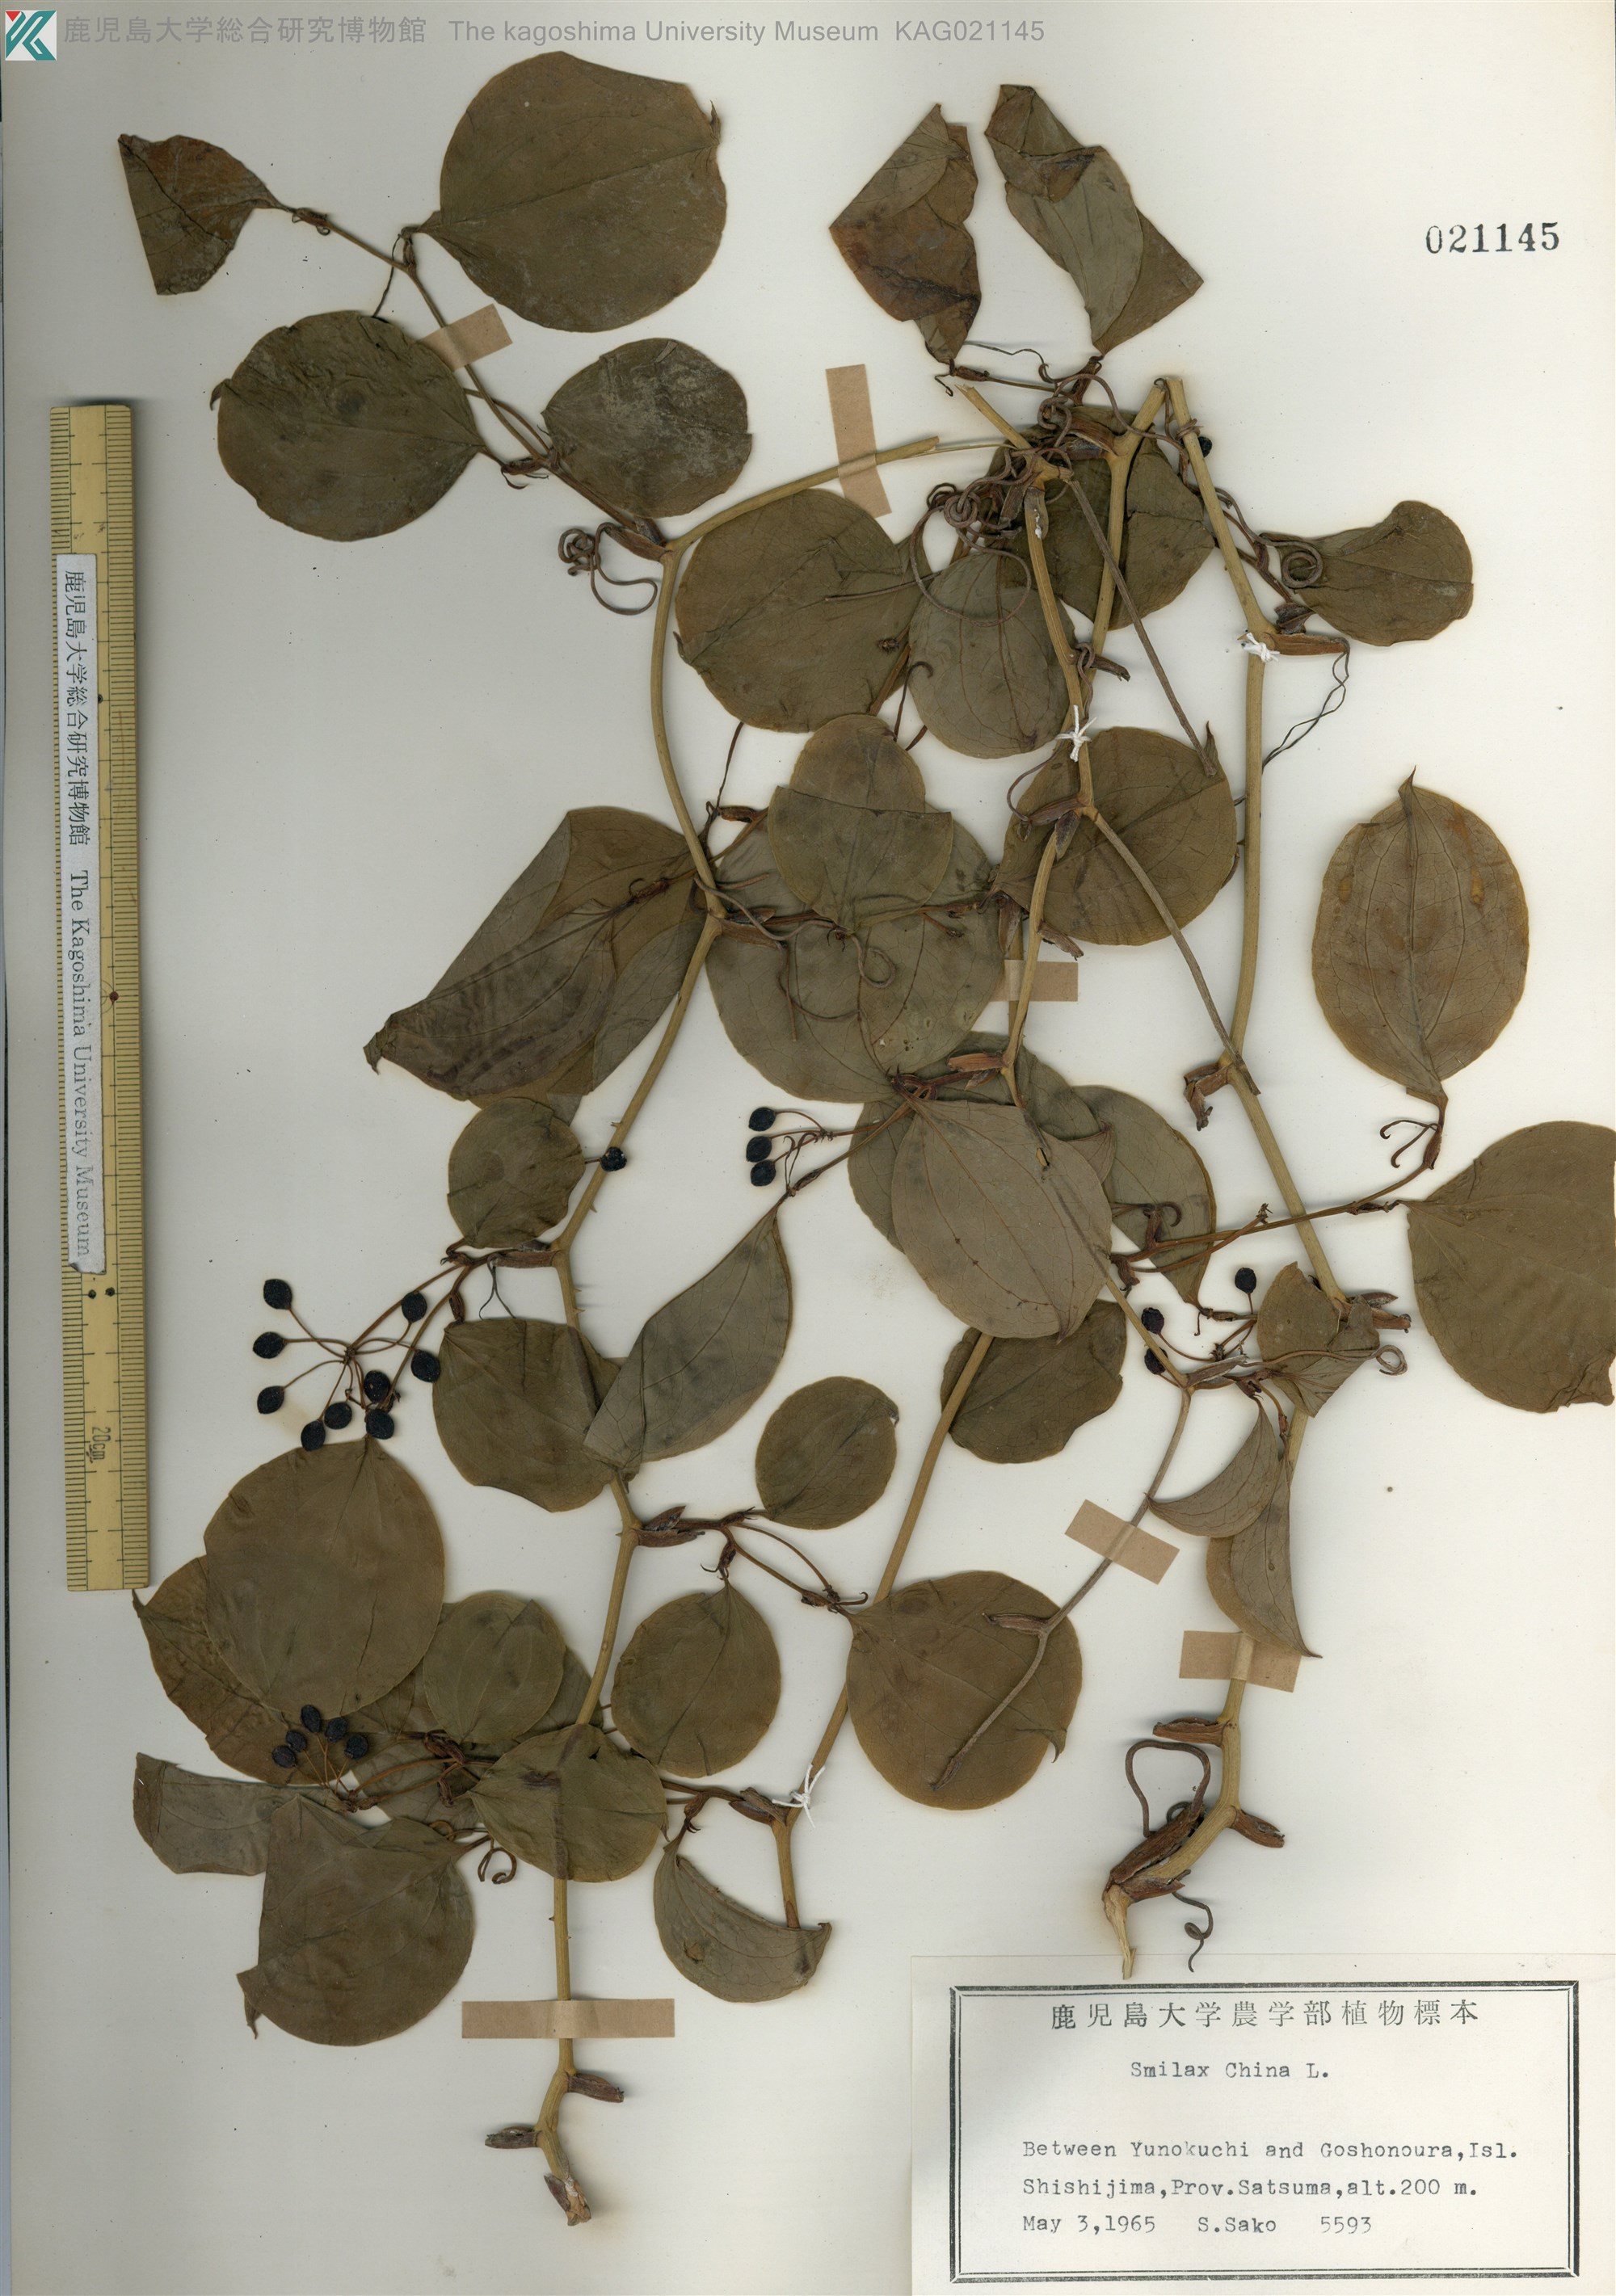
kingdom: Plantae
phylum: Tracheophyta
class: Liliopsida
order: Liliales
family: Smilacaceae
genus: Smilax
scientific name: Smilax china
